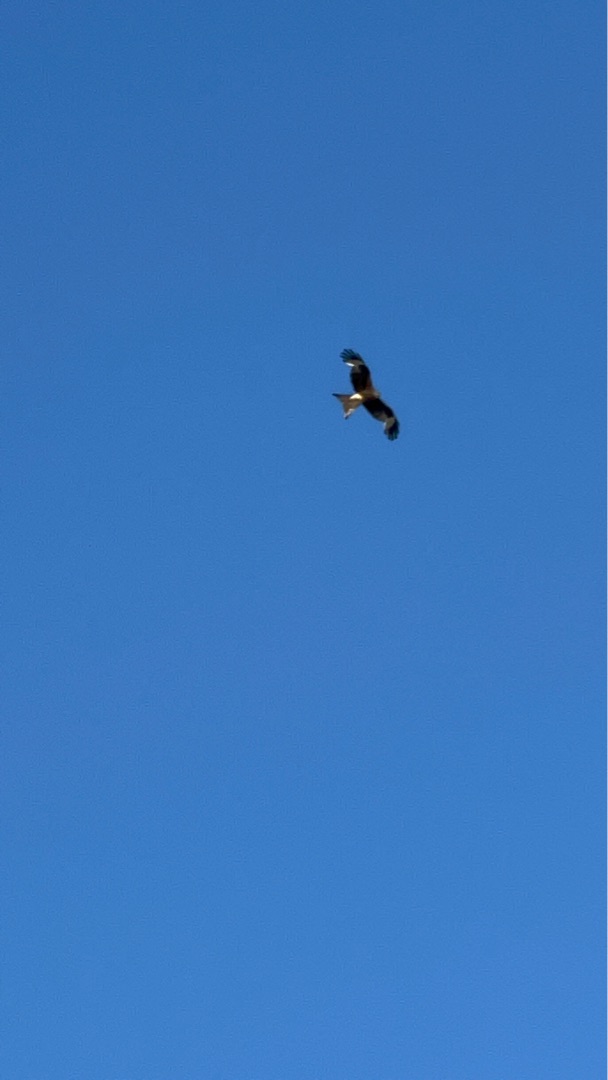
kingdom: Animalia
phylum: Chordata
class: Aves
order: Accipitriformes
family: Accipitridae
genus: Milvus
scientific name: Milvus milvus
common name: Rød glente
